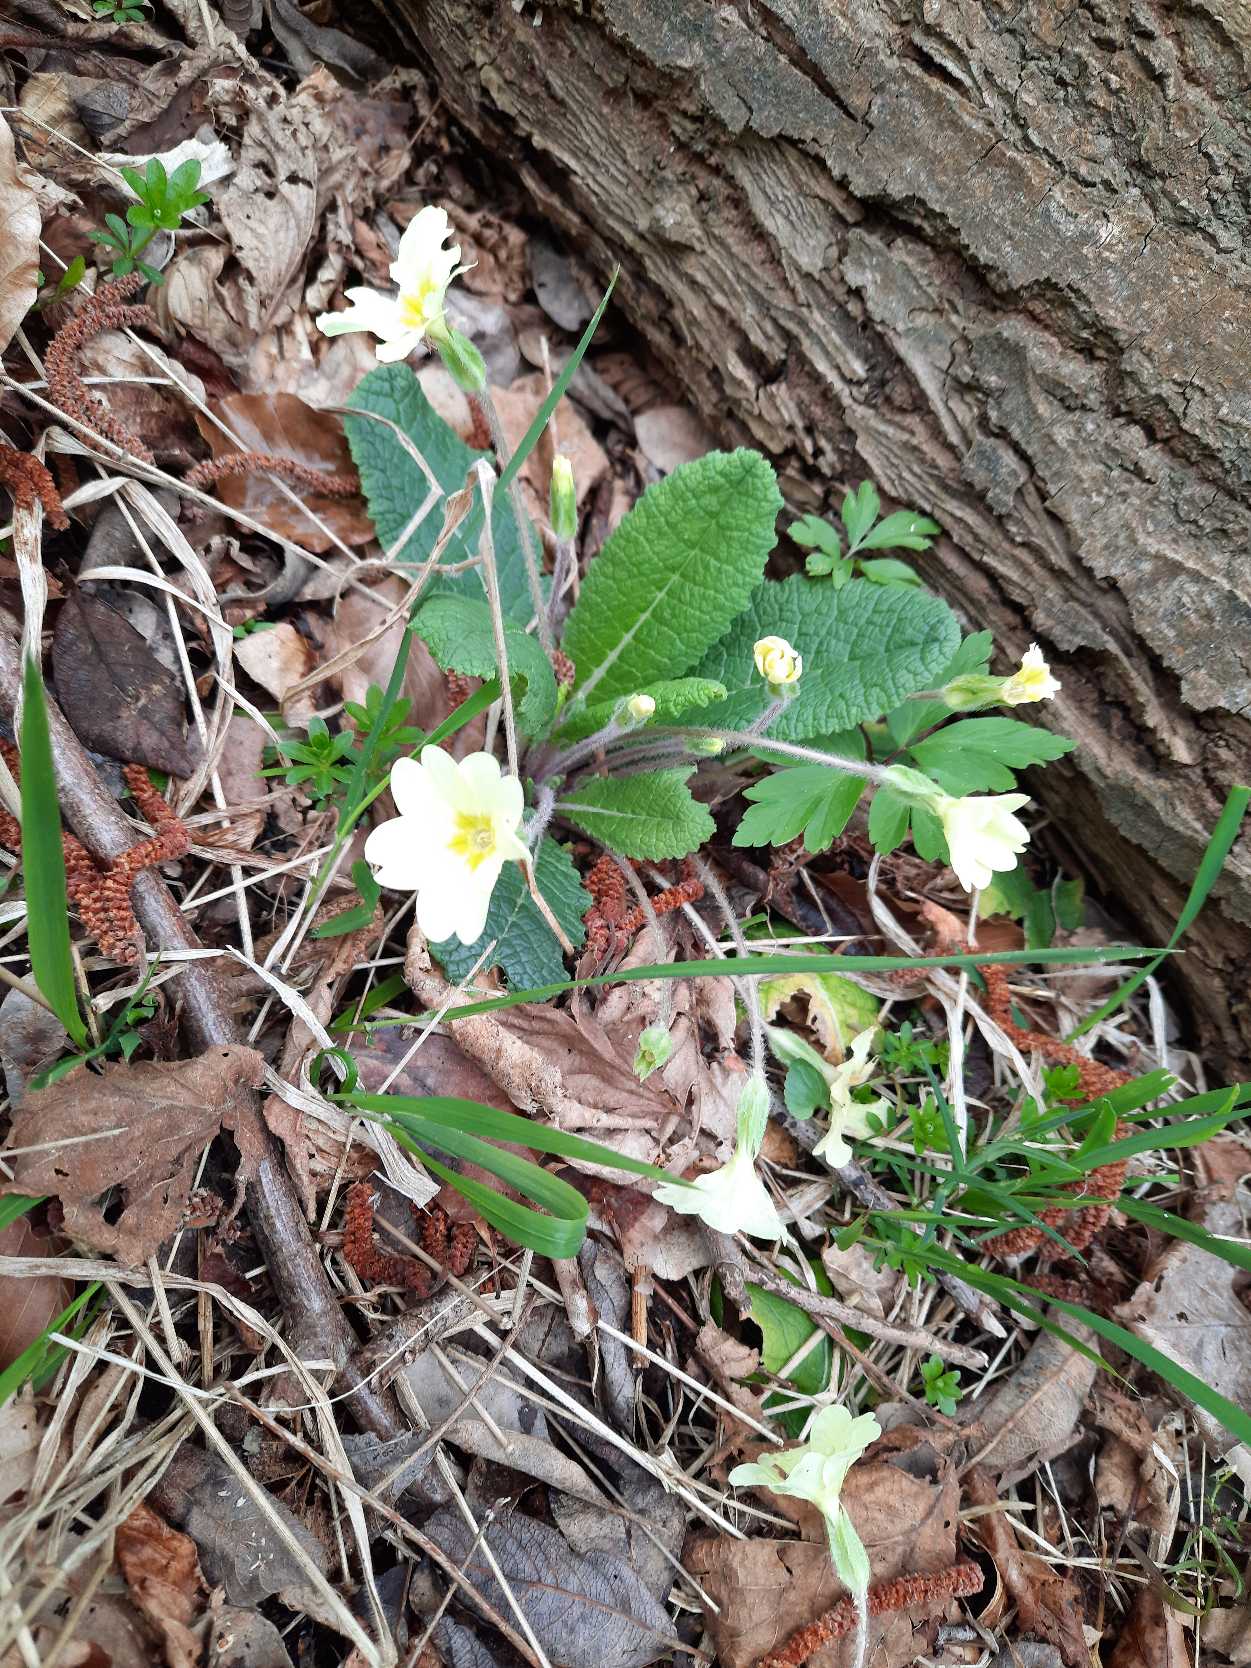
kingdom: Plantae
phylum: Tracheophyta
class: Magnoliopsida
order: Ericales
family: Primulaceae
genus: Primula
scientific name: Primula vulgaris
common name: Storblomstret kodriver
